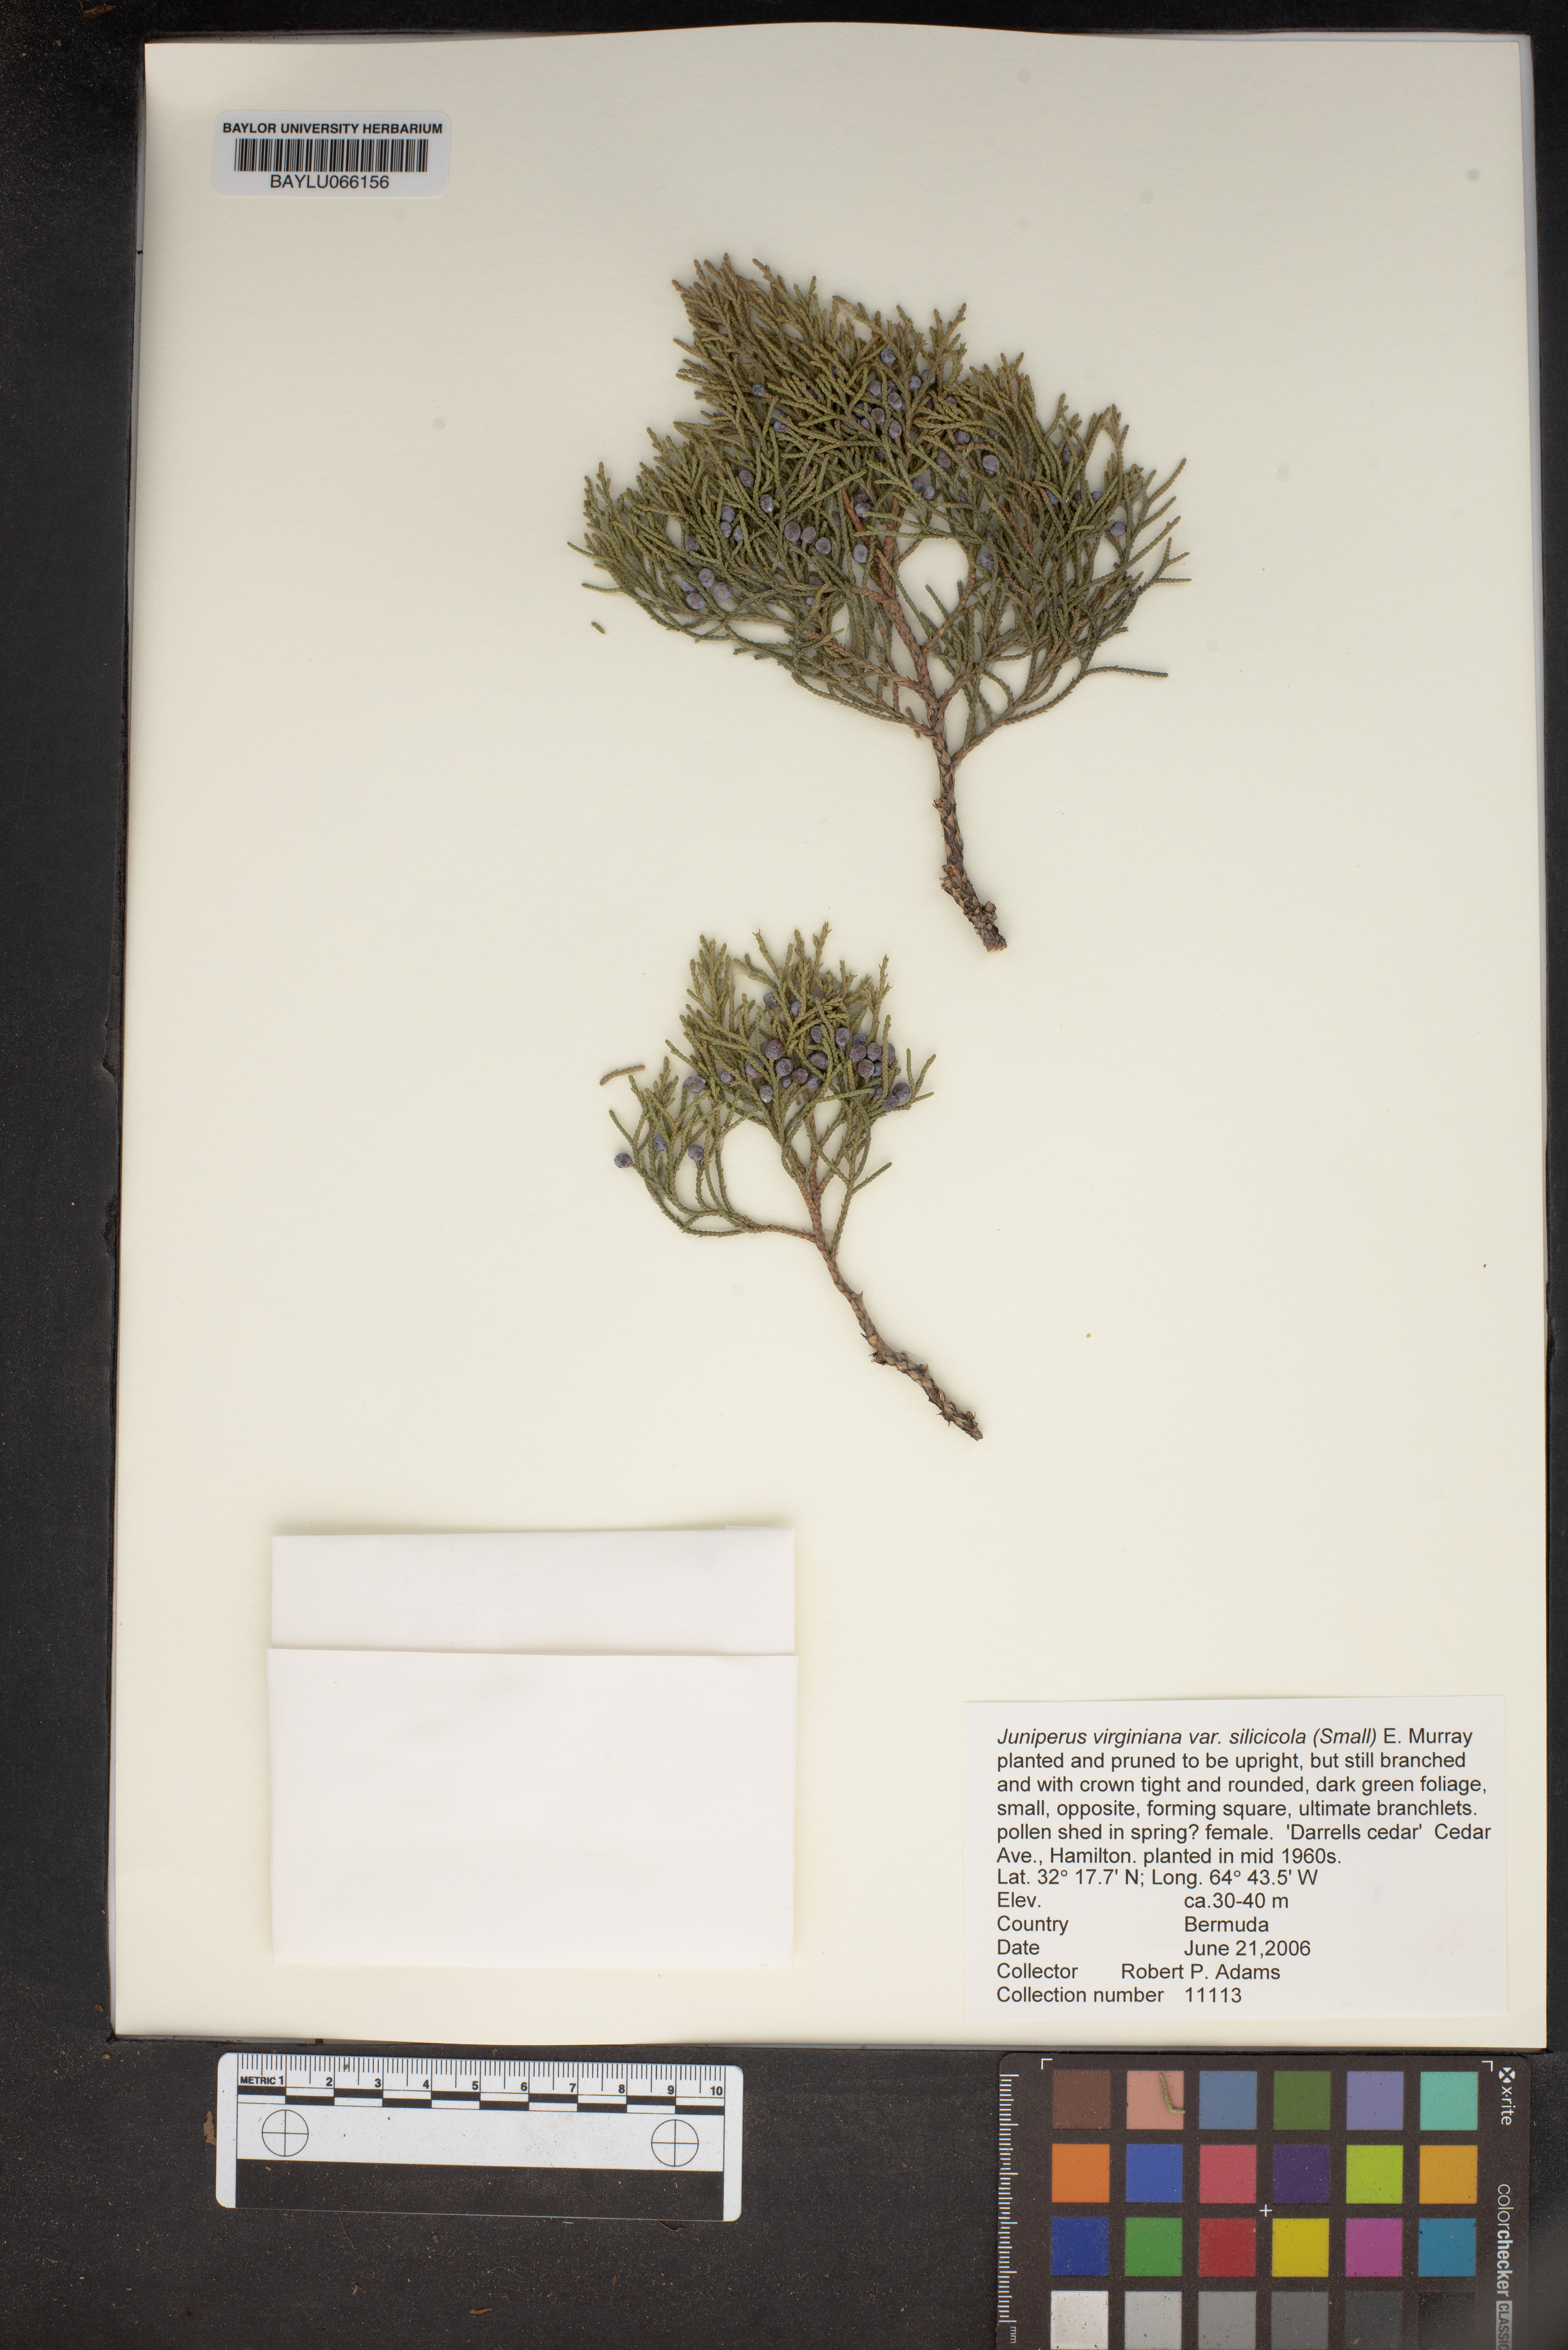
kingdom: Plantae
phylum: Tracheophyta
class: Pinopsida
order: Pinales
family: Cupressaceae
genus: Juniperus
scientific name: Juniperus virginiana
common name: Red juniper
